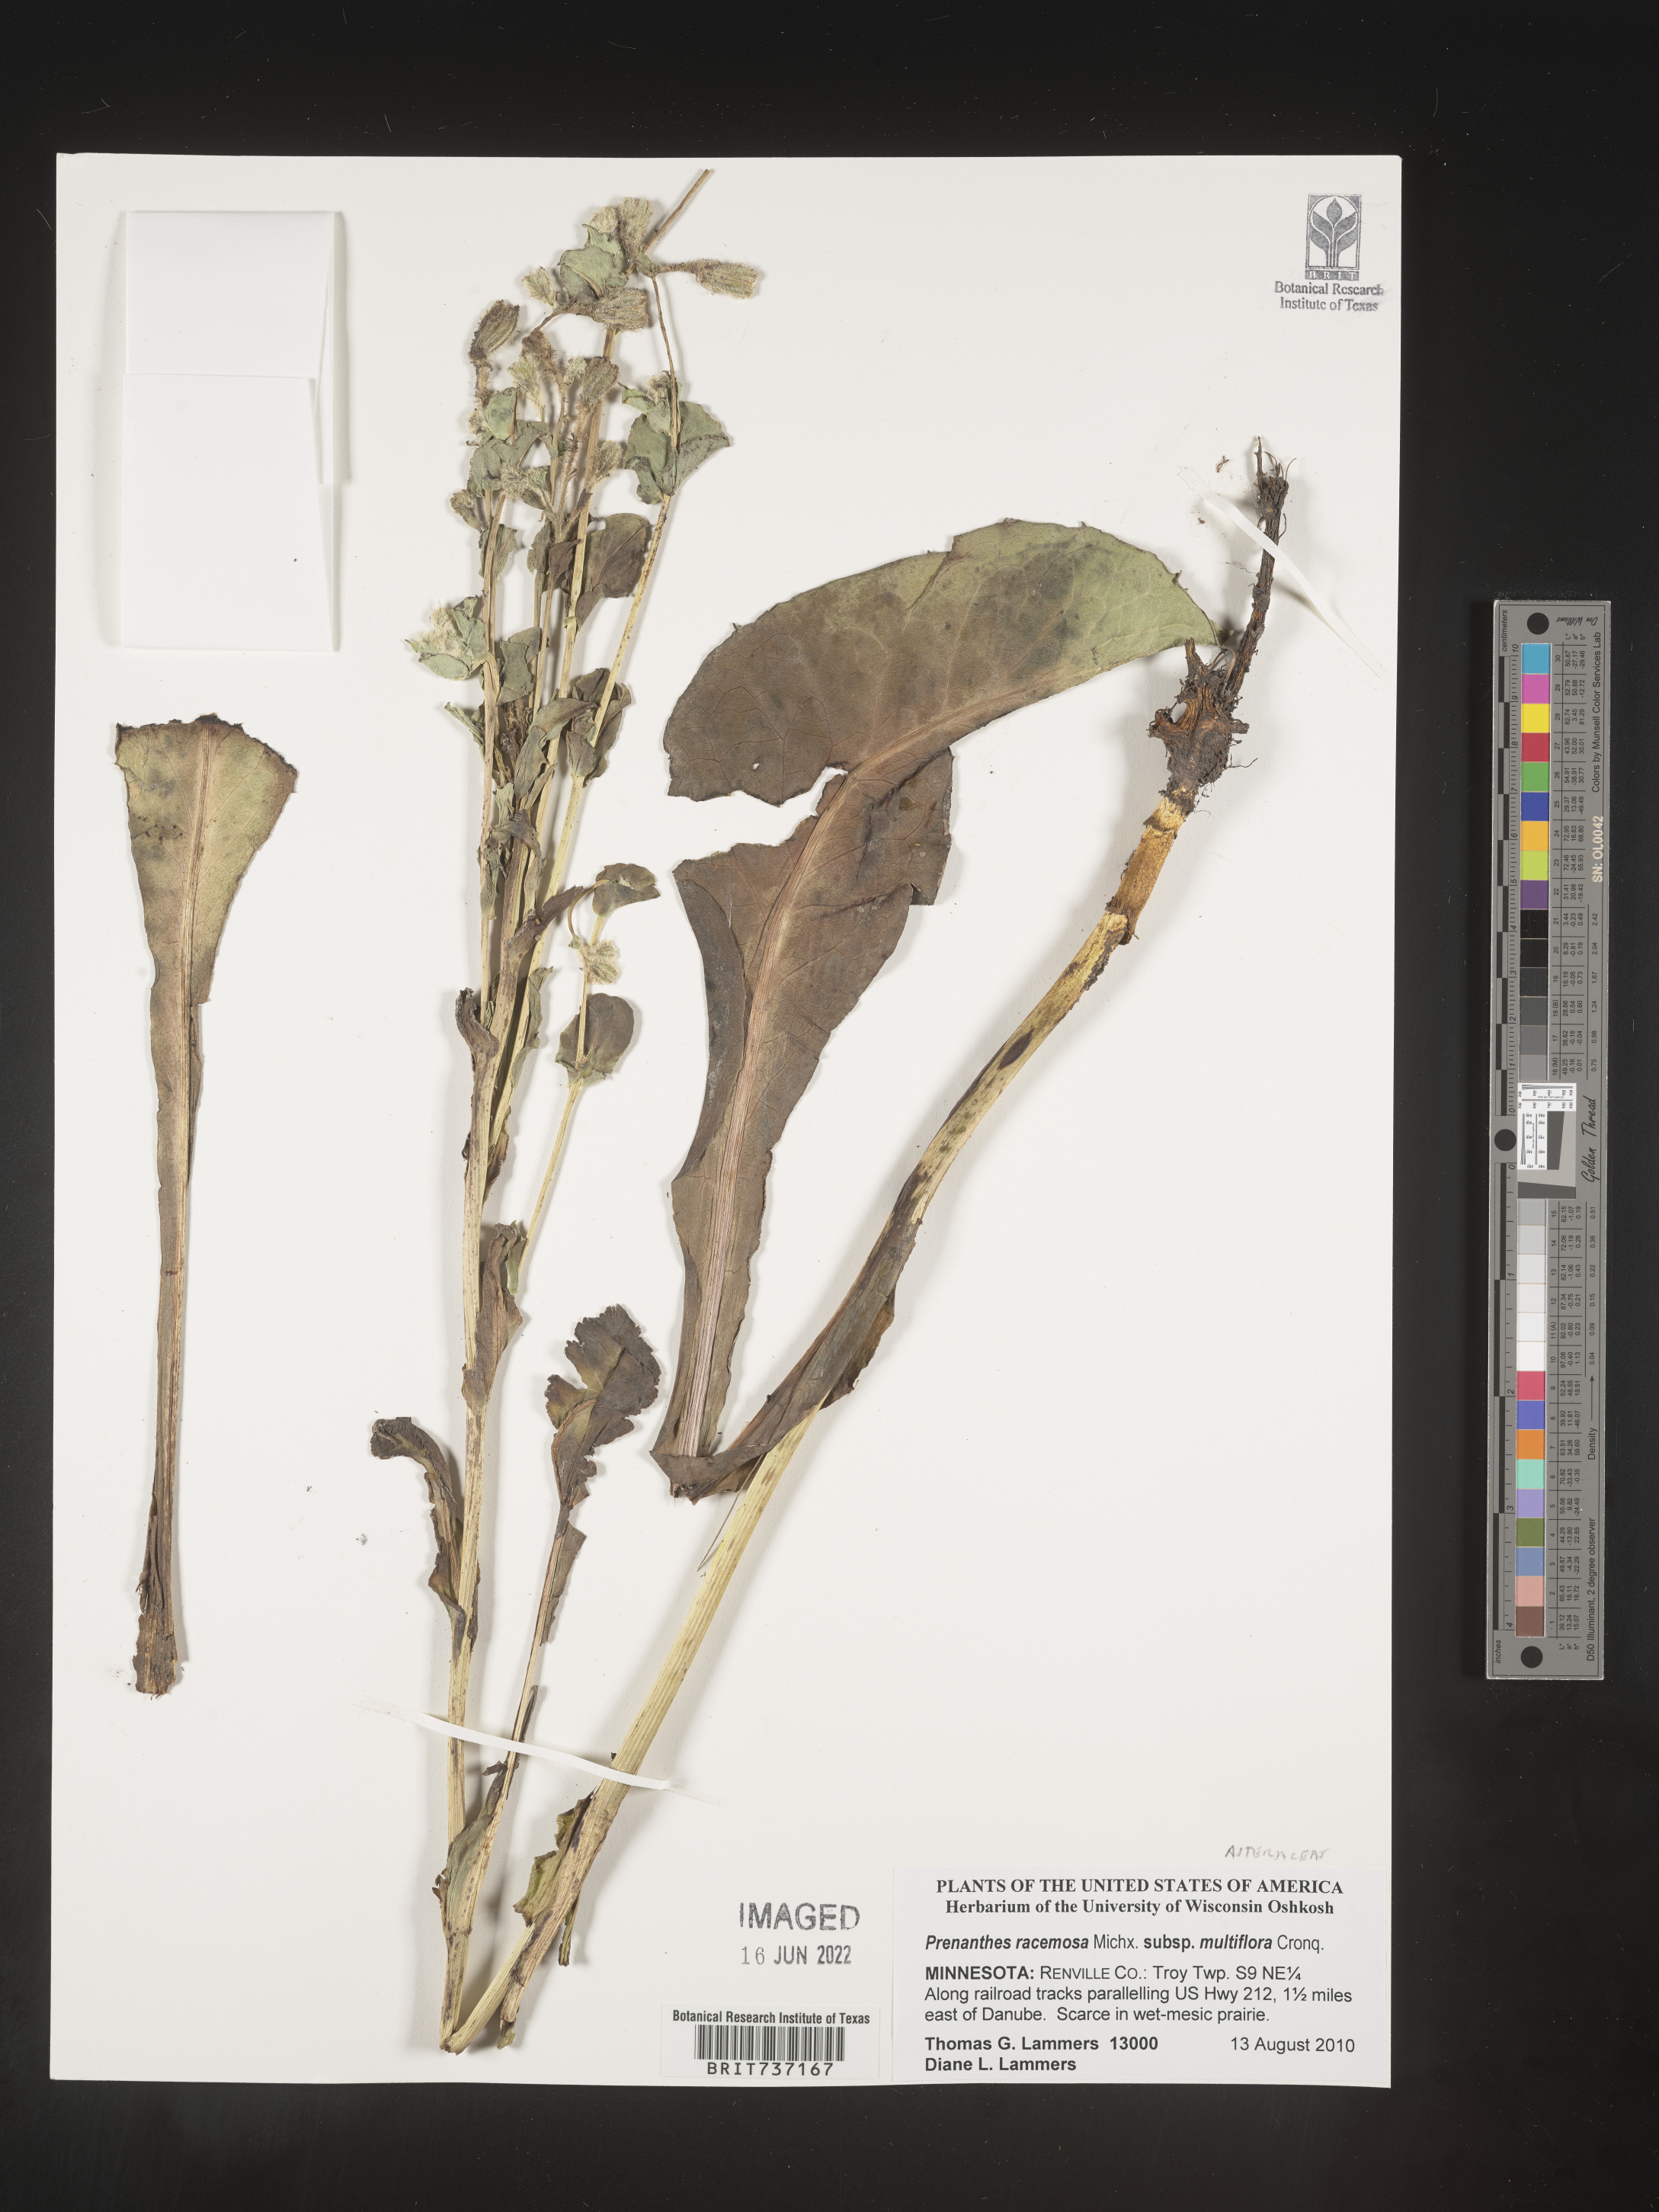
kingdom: Plantae
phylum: Tracheophyta
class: Magnoliopsida
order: Asterales
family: Asteraceae
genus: Prenanthes
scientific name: Prenanthes
